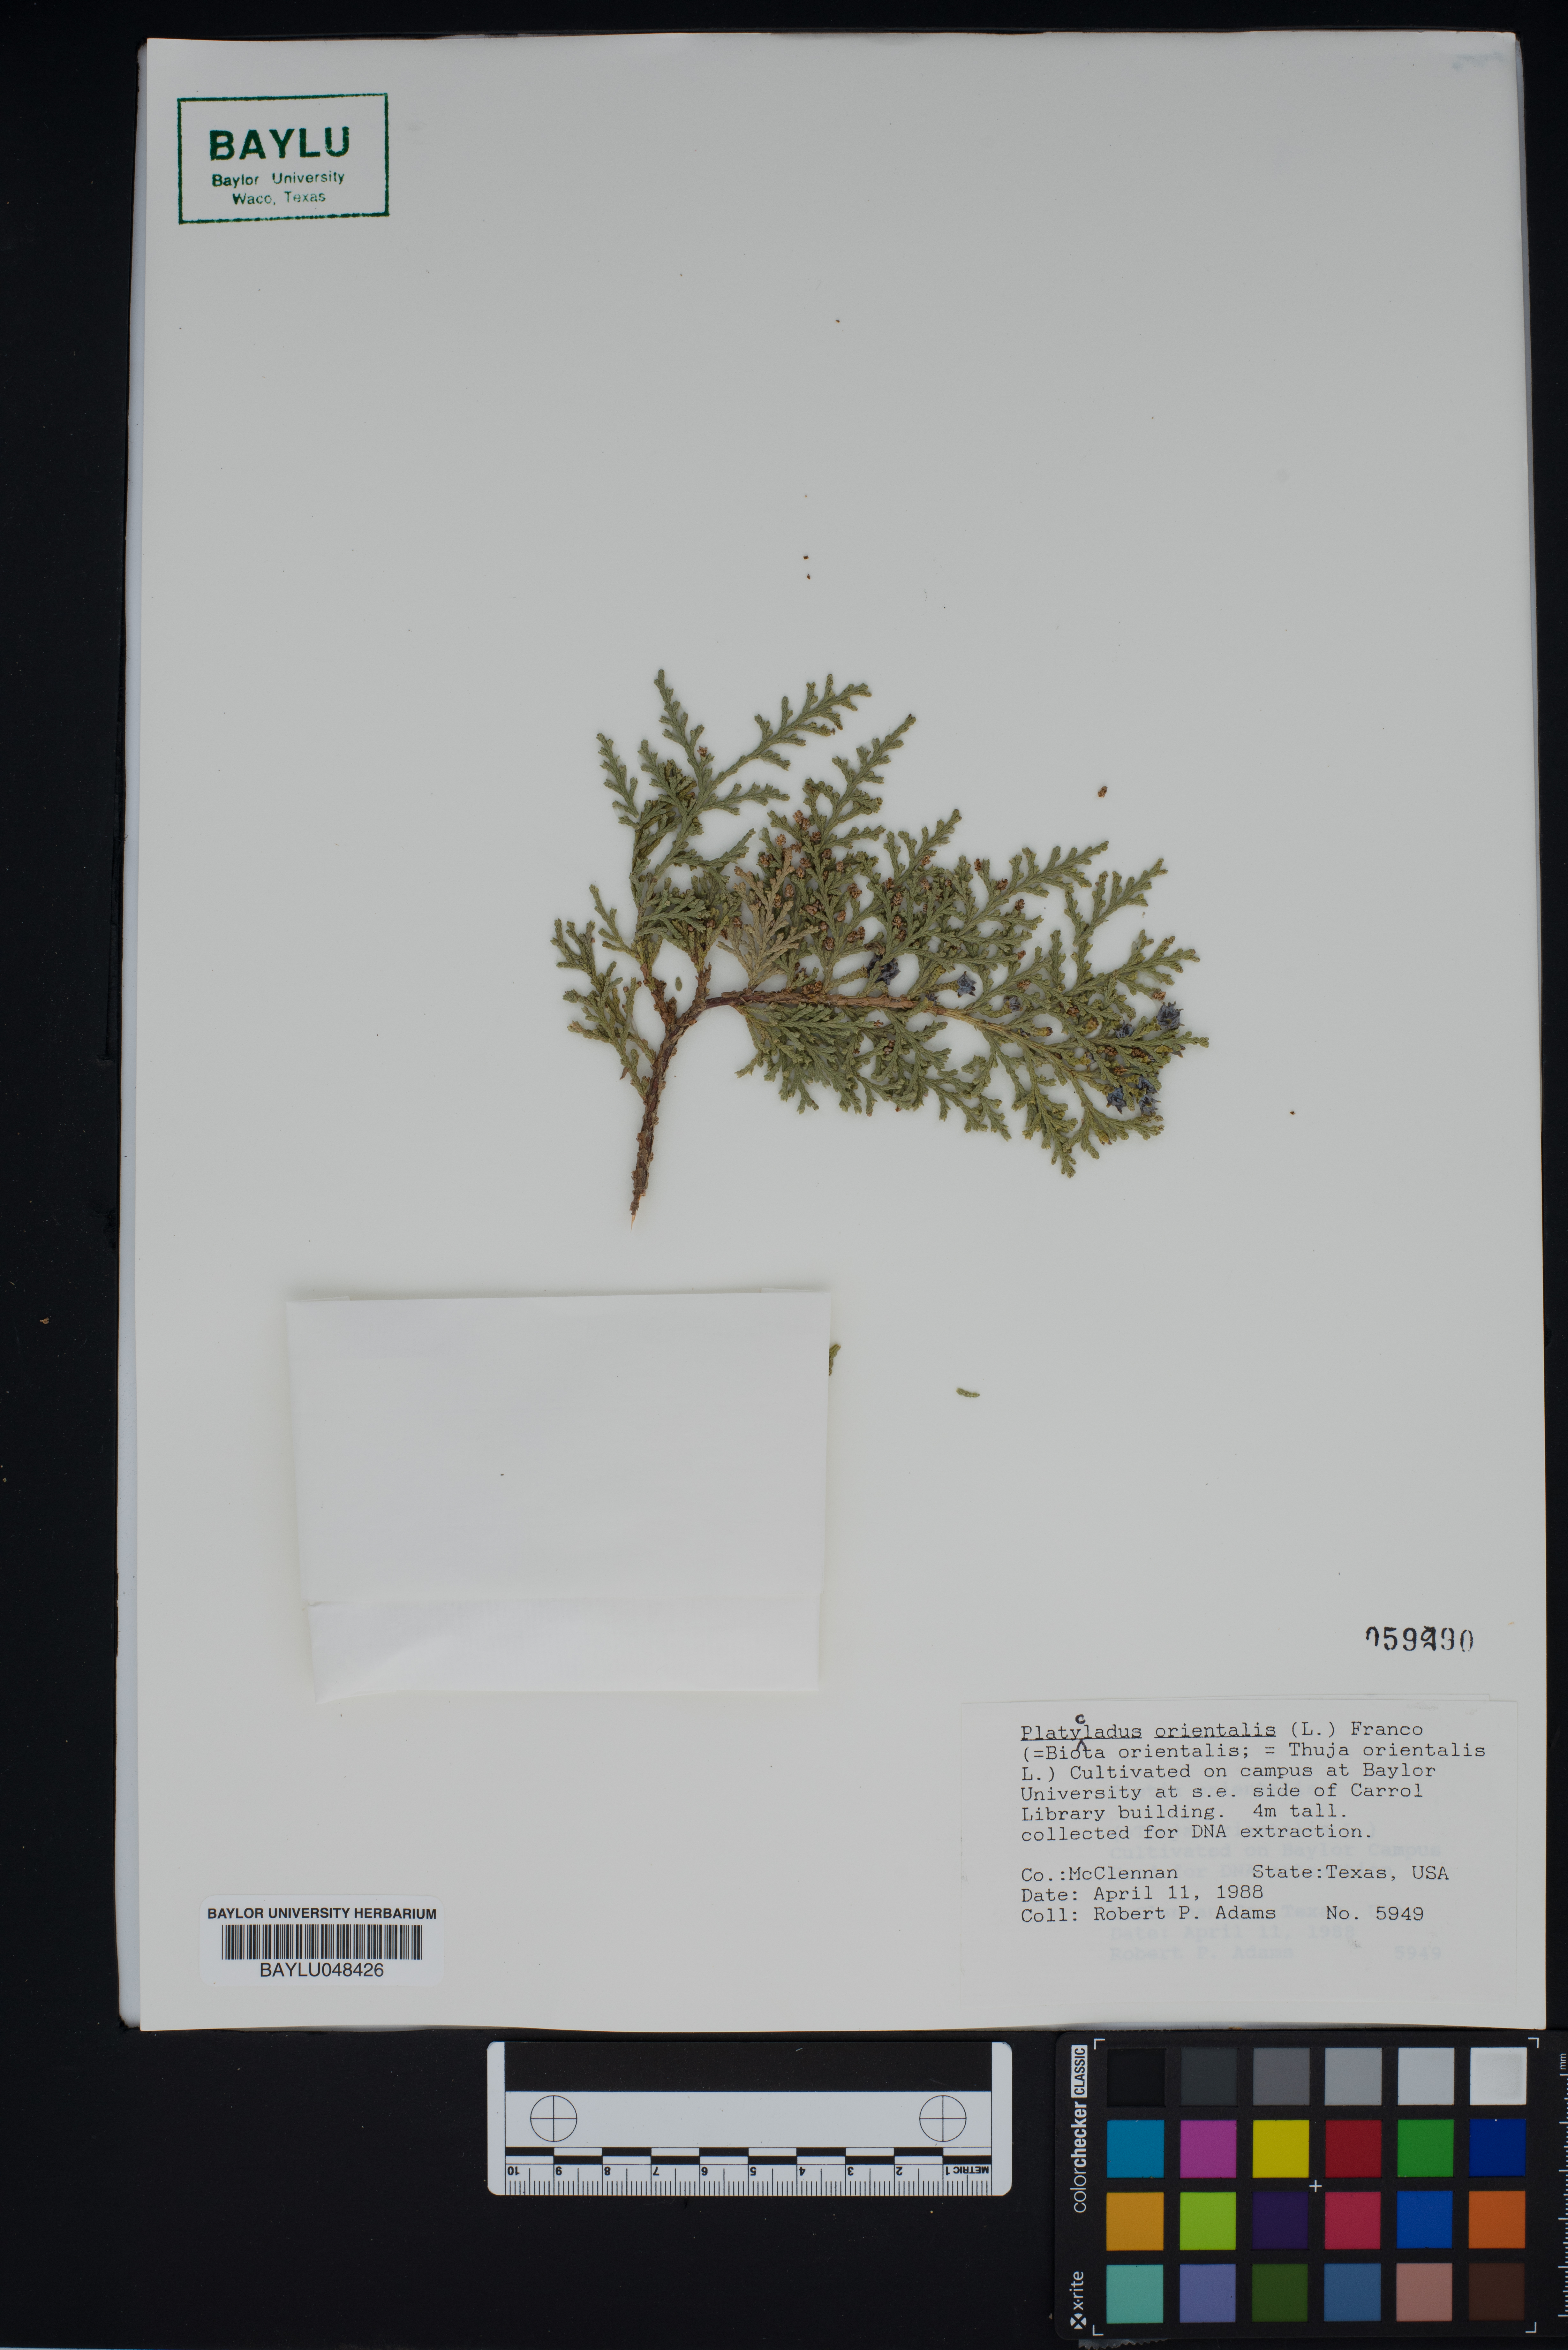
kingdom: Plantae
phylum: Tracheophyta
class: Pinopsida
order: Pinales
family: Cupressaceae
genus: Platycladus
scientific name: Platycladus orientalis
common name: Chinese thuja
